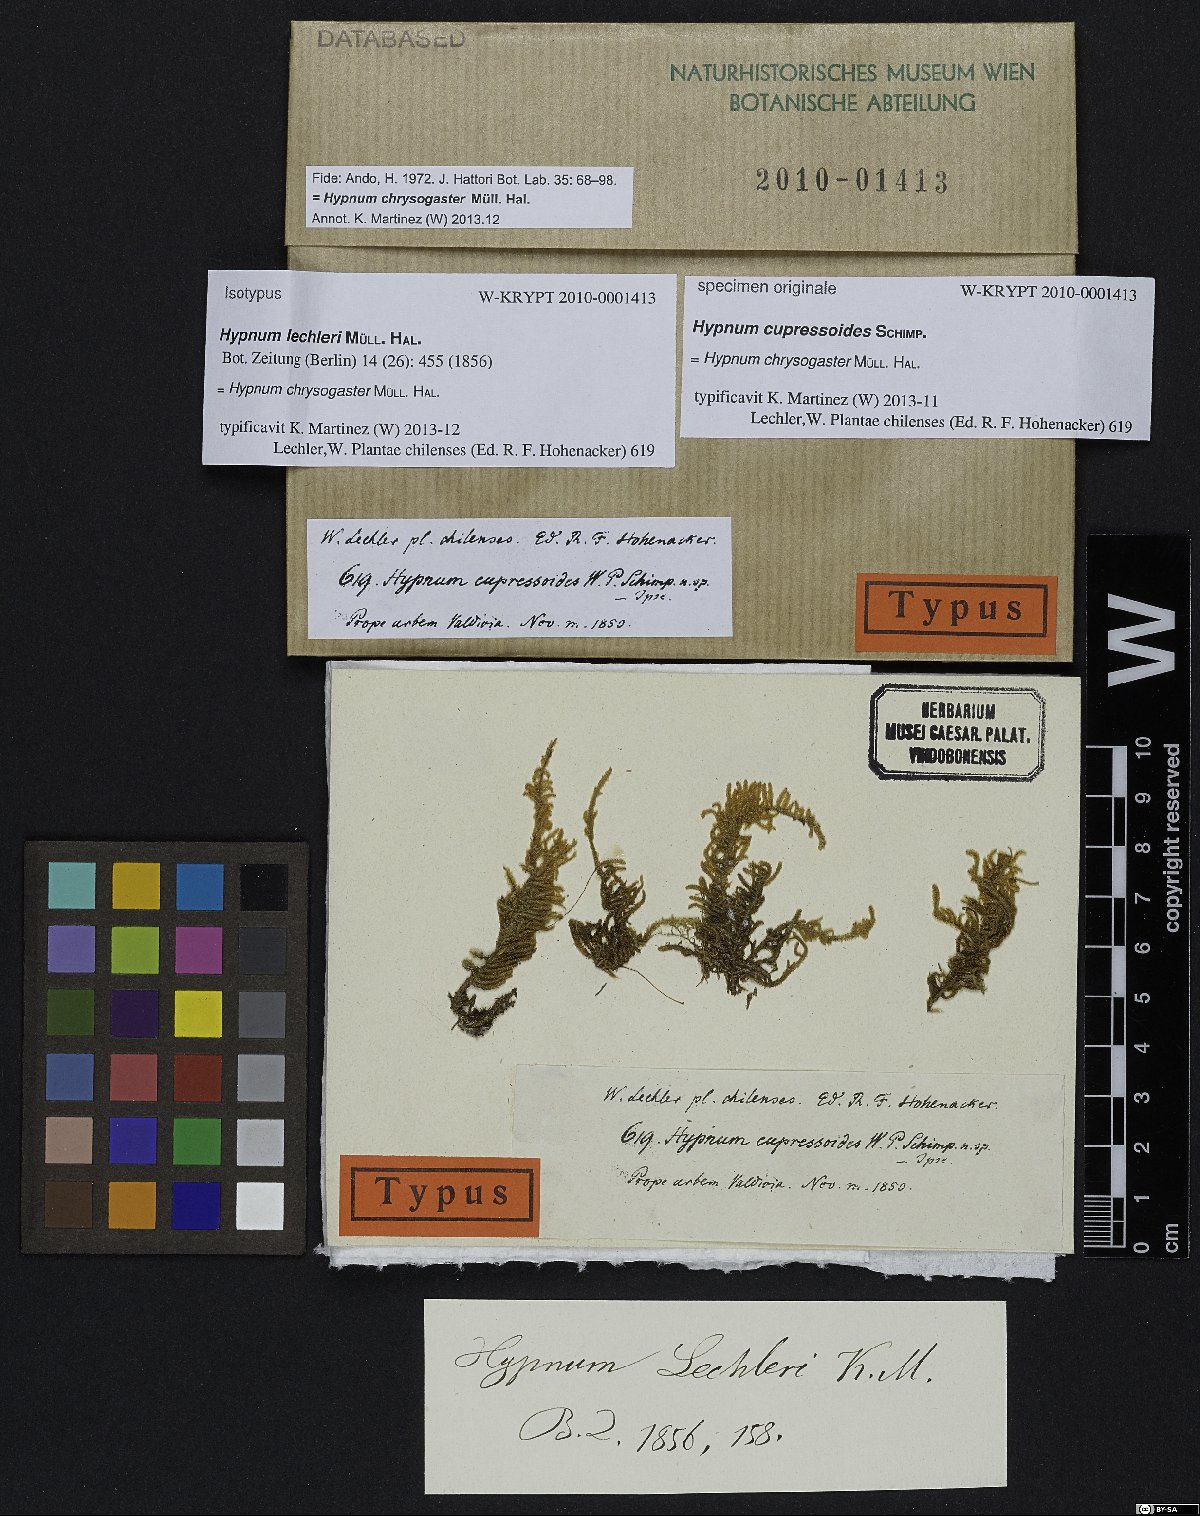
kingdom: Plantae
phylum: Bryophyta
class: Bryopsida
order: Hypnales
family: Pylaisiadelphaceae
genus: Notohypnum
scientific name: Notohypnum chrysogaster
